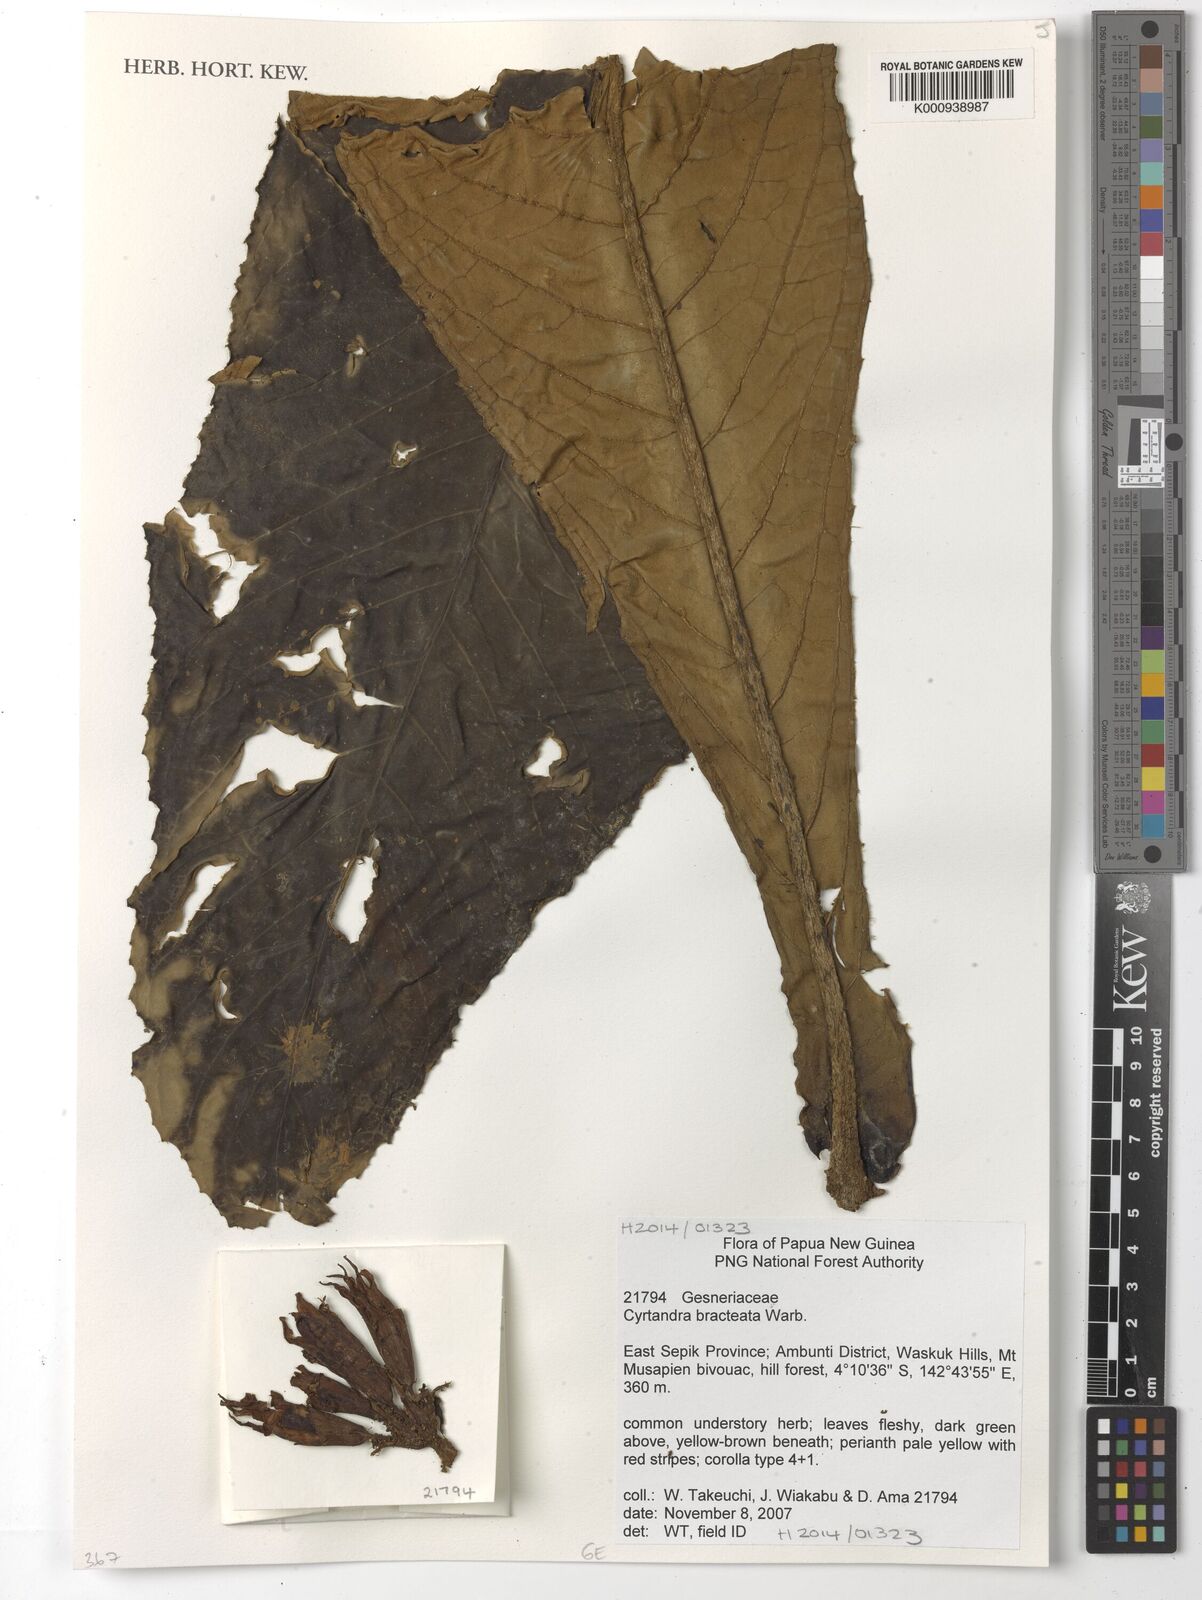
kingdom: Plantae
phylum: Tracheophyta
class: Magnoliopsida
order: Lamiales
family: Gesneriaceae
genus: Cyrtandra
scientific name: Cyrtandra bracteata
